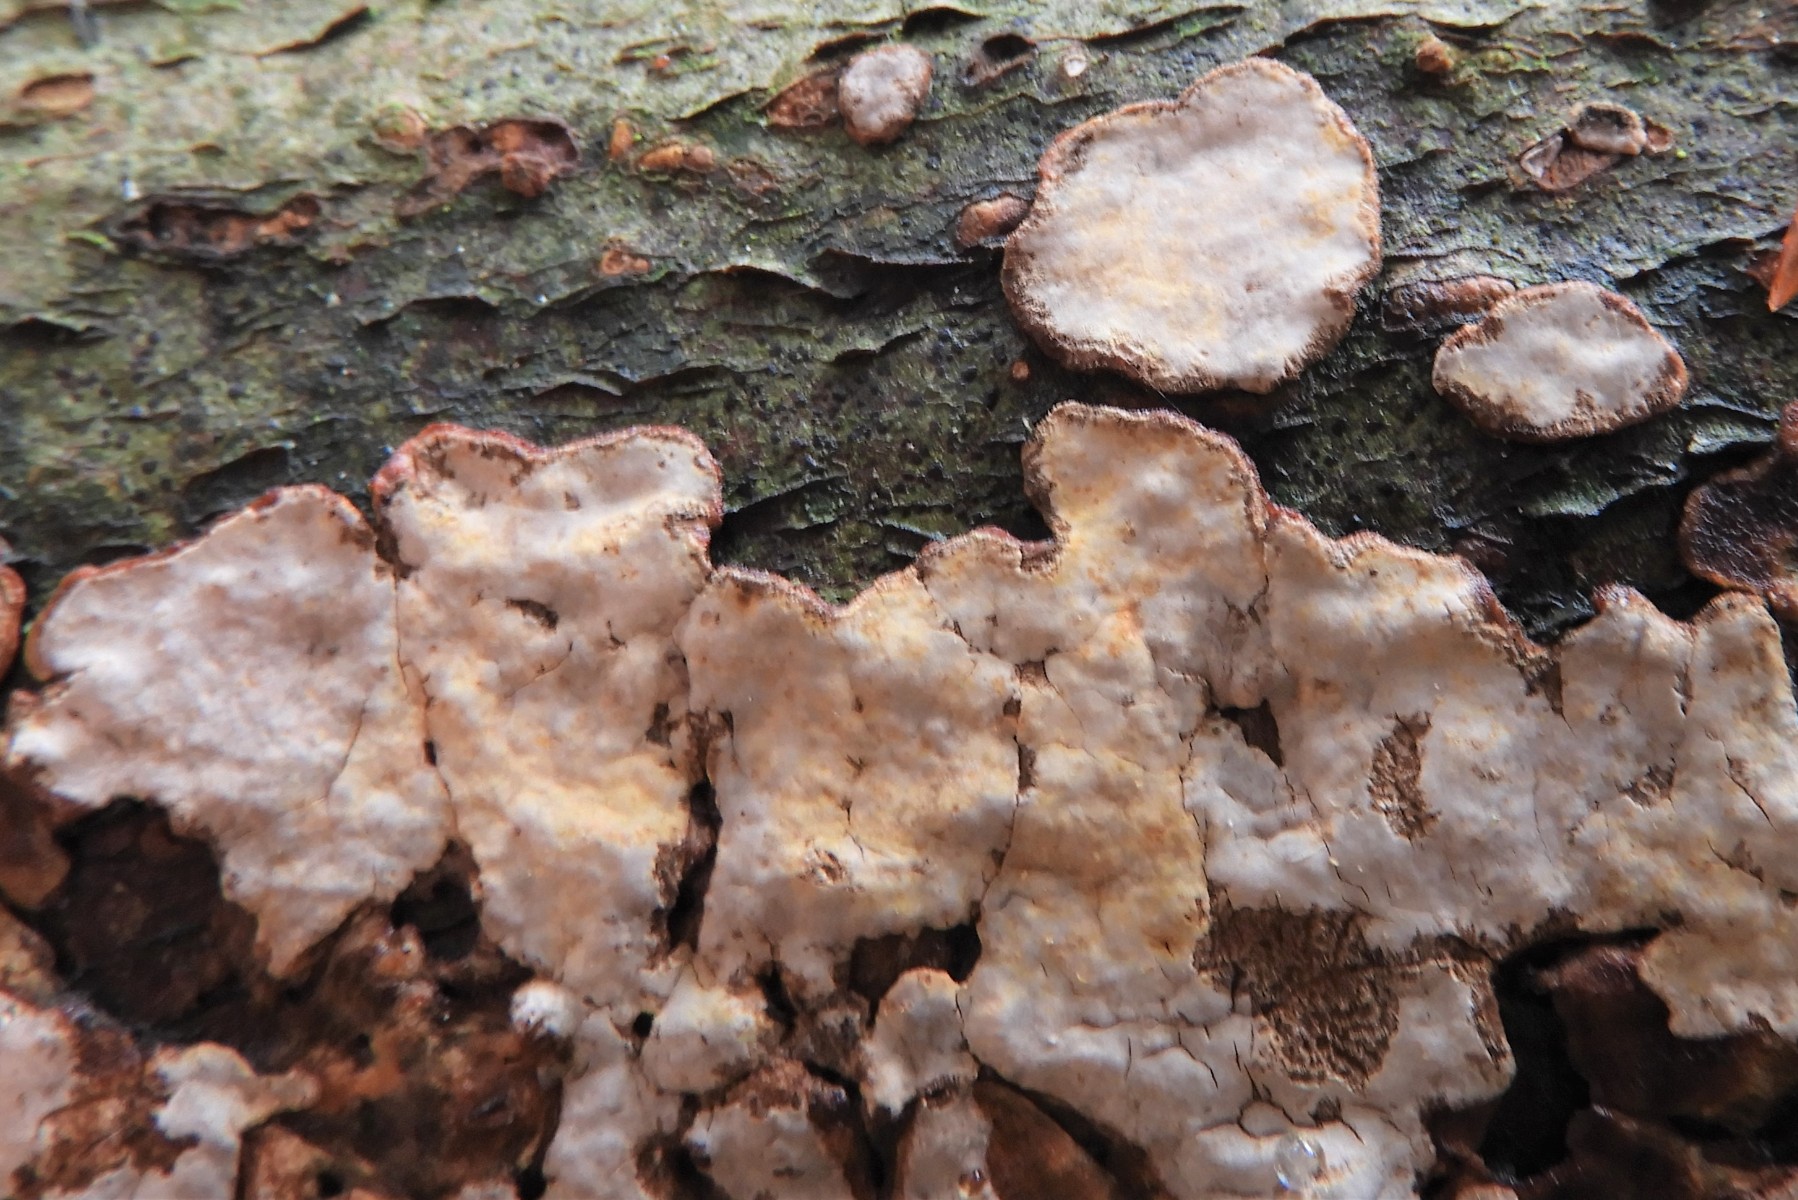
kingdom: Fungi
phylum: Basidiomycota
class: Agaricomycetes
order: Corticiales
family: Corticiaceae
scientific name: Corticiaceae
